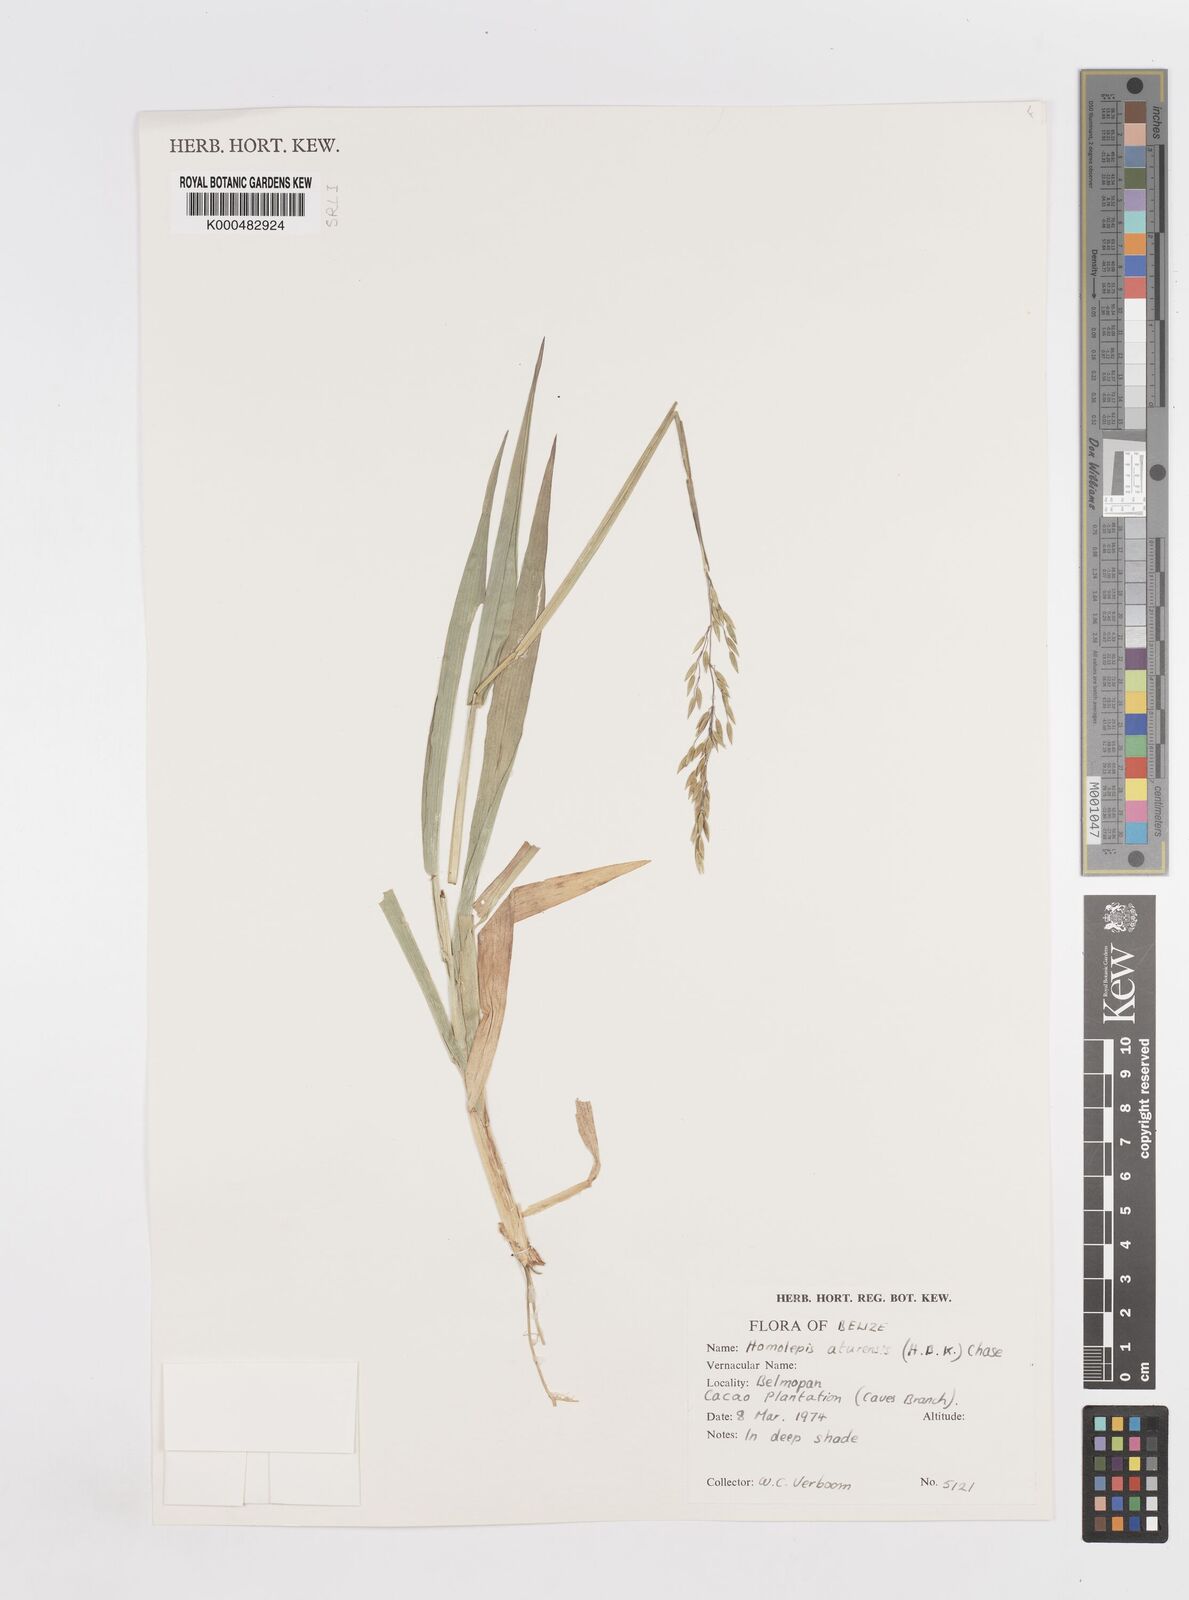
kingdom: Plantae
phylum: Tracheophyta
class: Liliopsida
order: Poales
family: Poaceae
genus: Homolepis
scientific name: Homolepis aturensis
